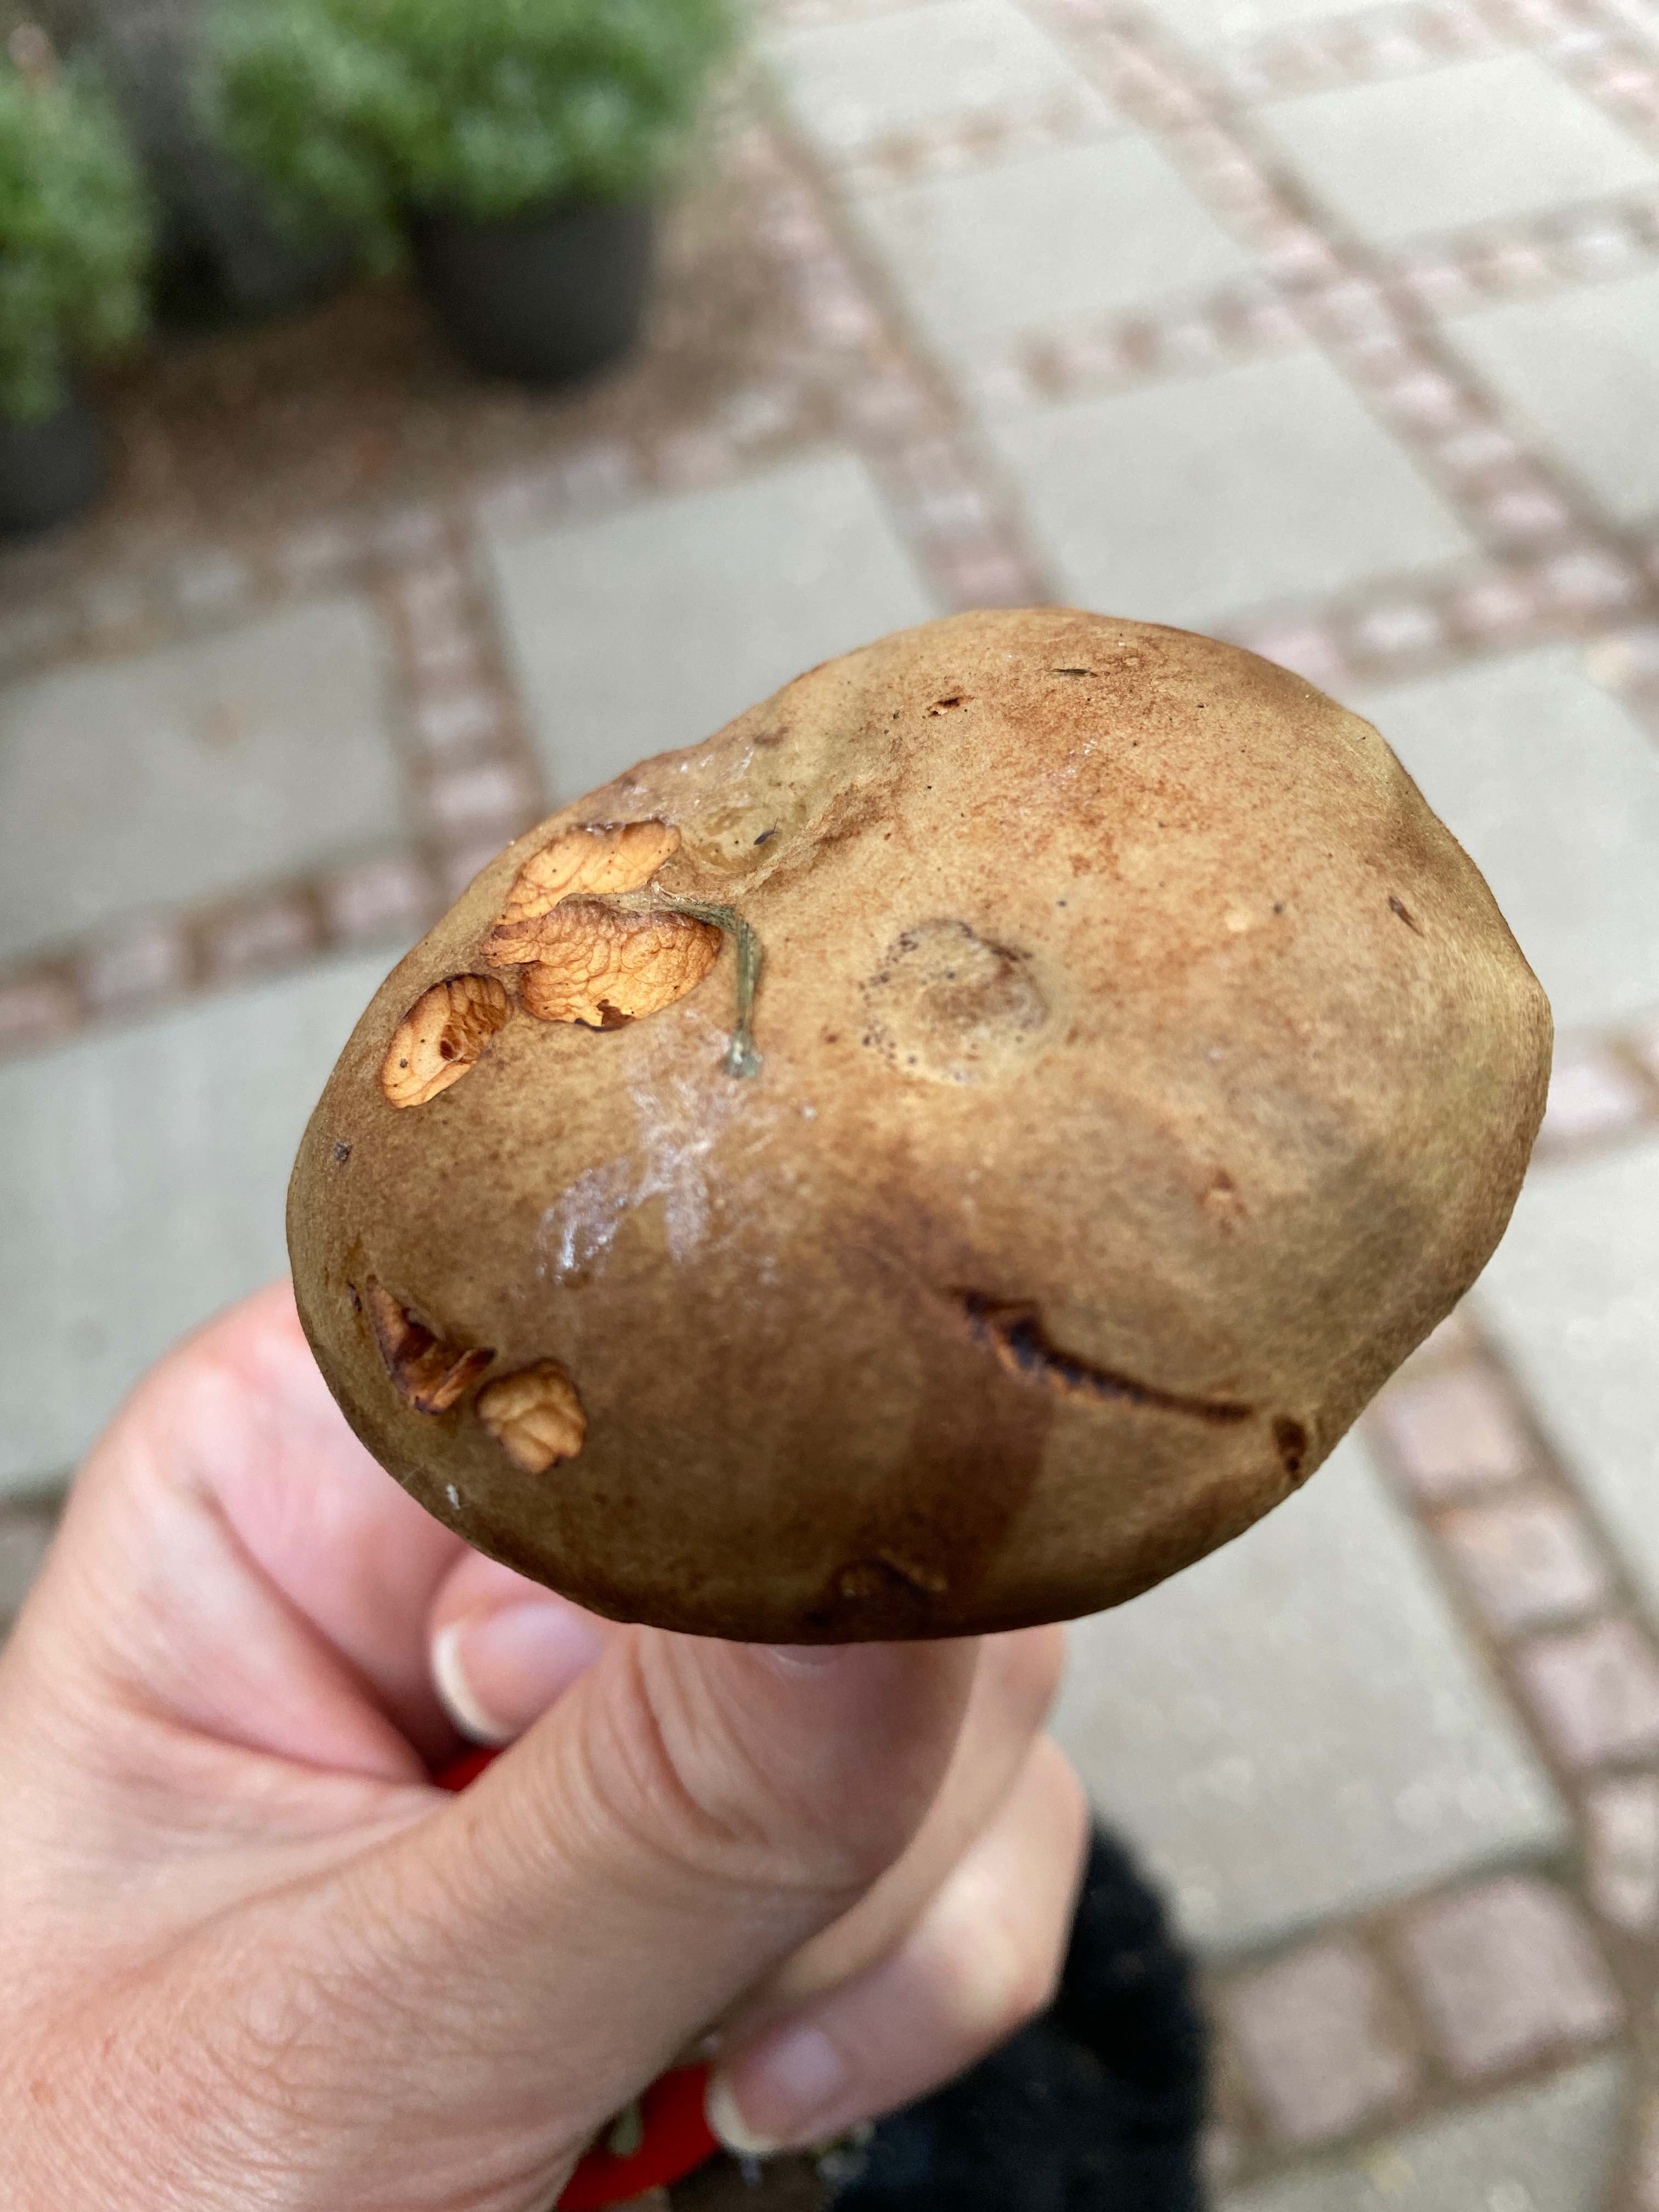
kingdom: Fungi
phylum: Basidiomycota
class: Agaricomycetes
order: Boletales
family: Paxillaceae
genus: Paxillus
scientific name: Paxillus
